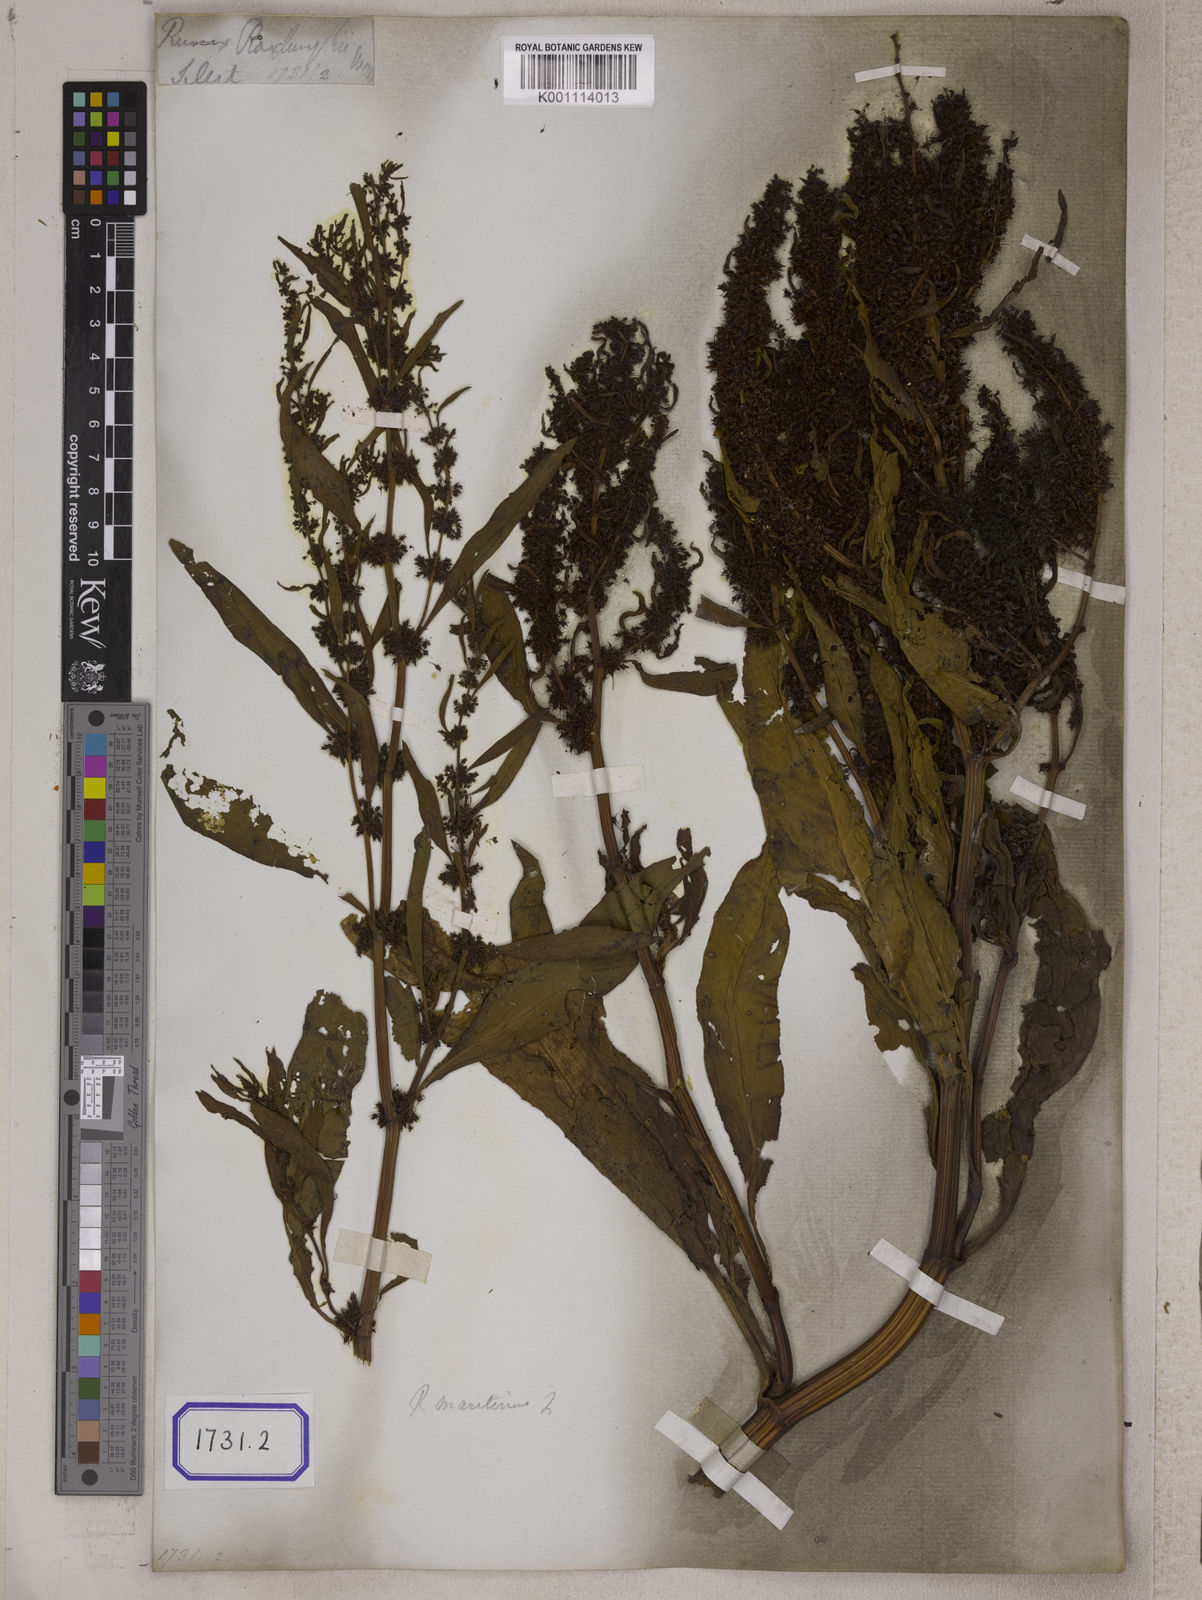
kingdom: Plantae
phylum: Tracheophyta
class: Magnoliopsida
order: Caryophyllales
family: Polygonaceae
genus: Rumex
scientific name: Rumex maritimus
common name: Golden dock
